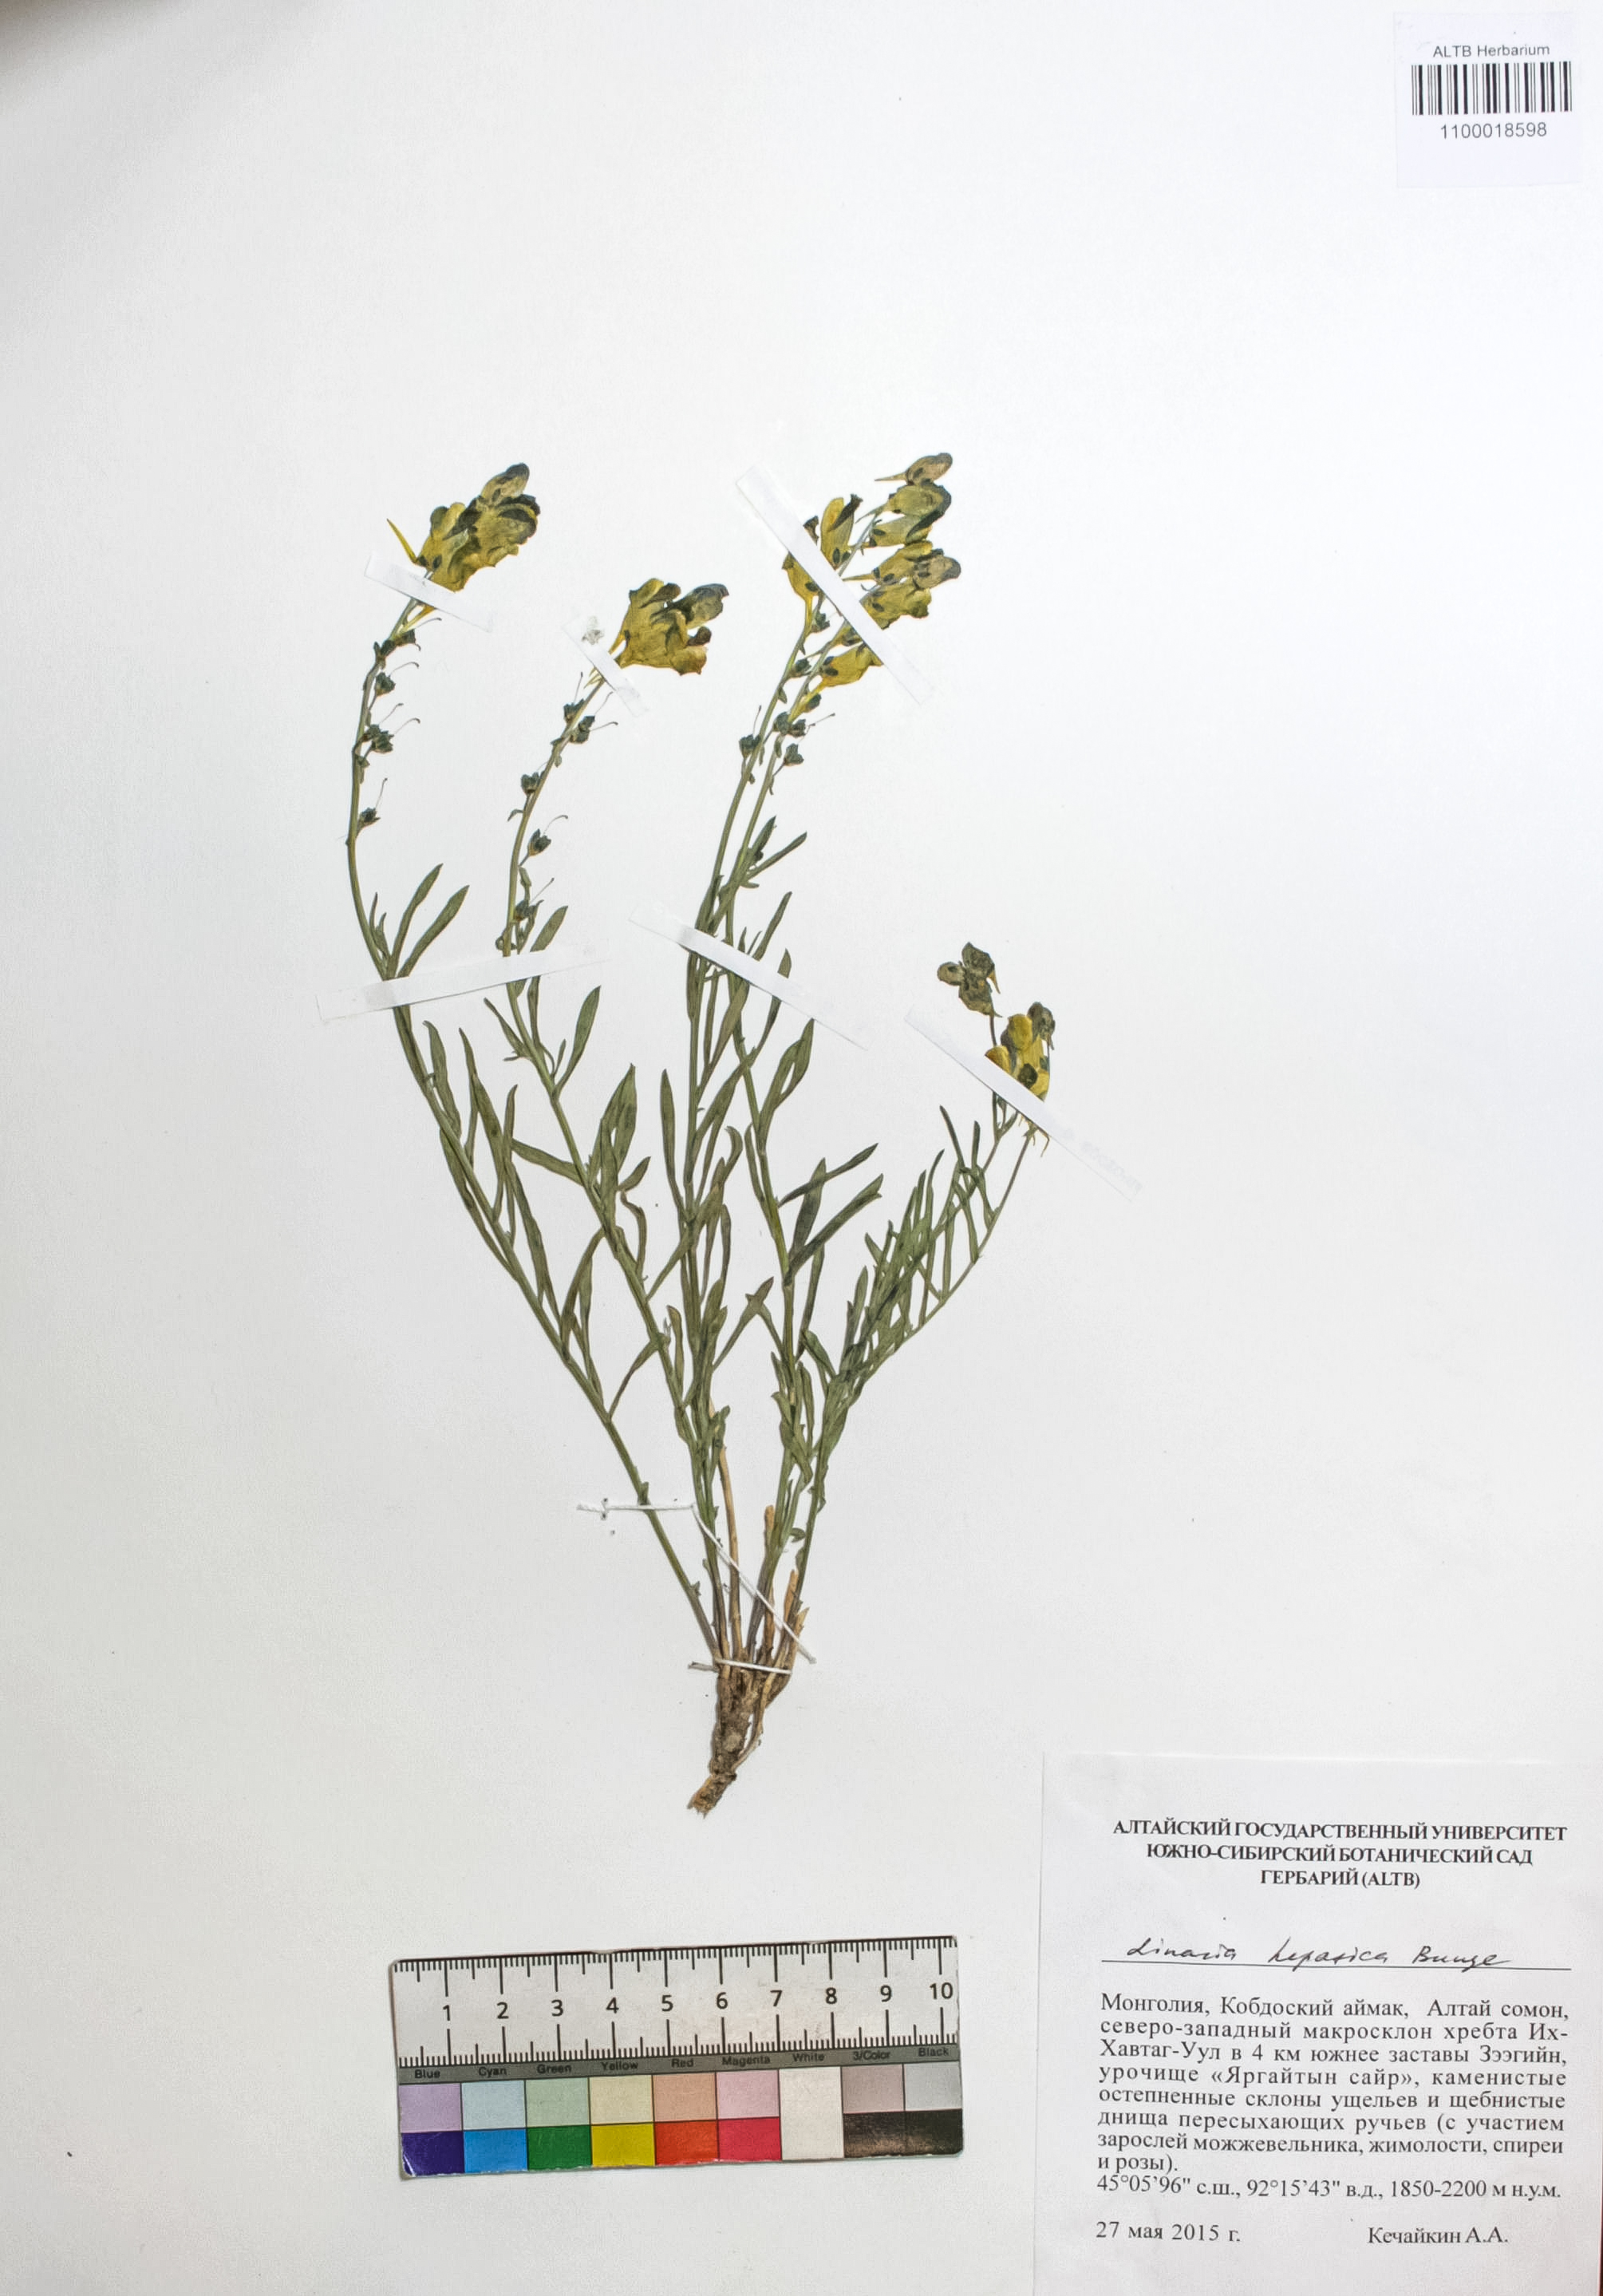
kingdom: Plantae
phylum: Tracheophyta
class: Magnoliopsida
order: Lamiales
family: Plantaginaceae
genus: Linaria
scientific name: Linaria hepatica
